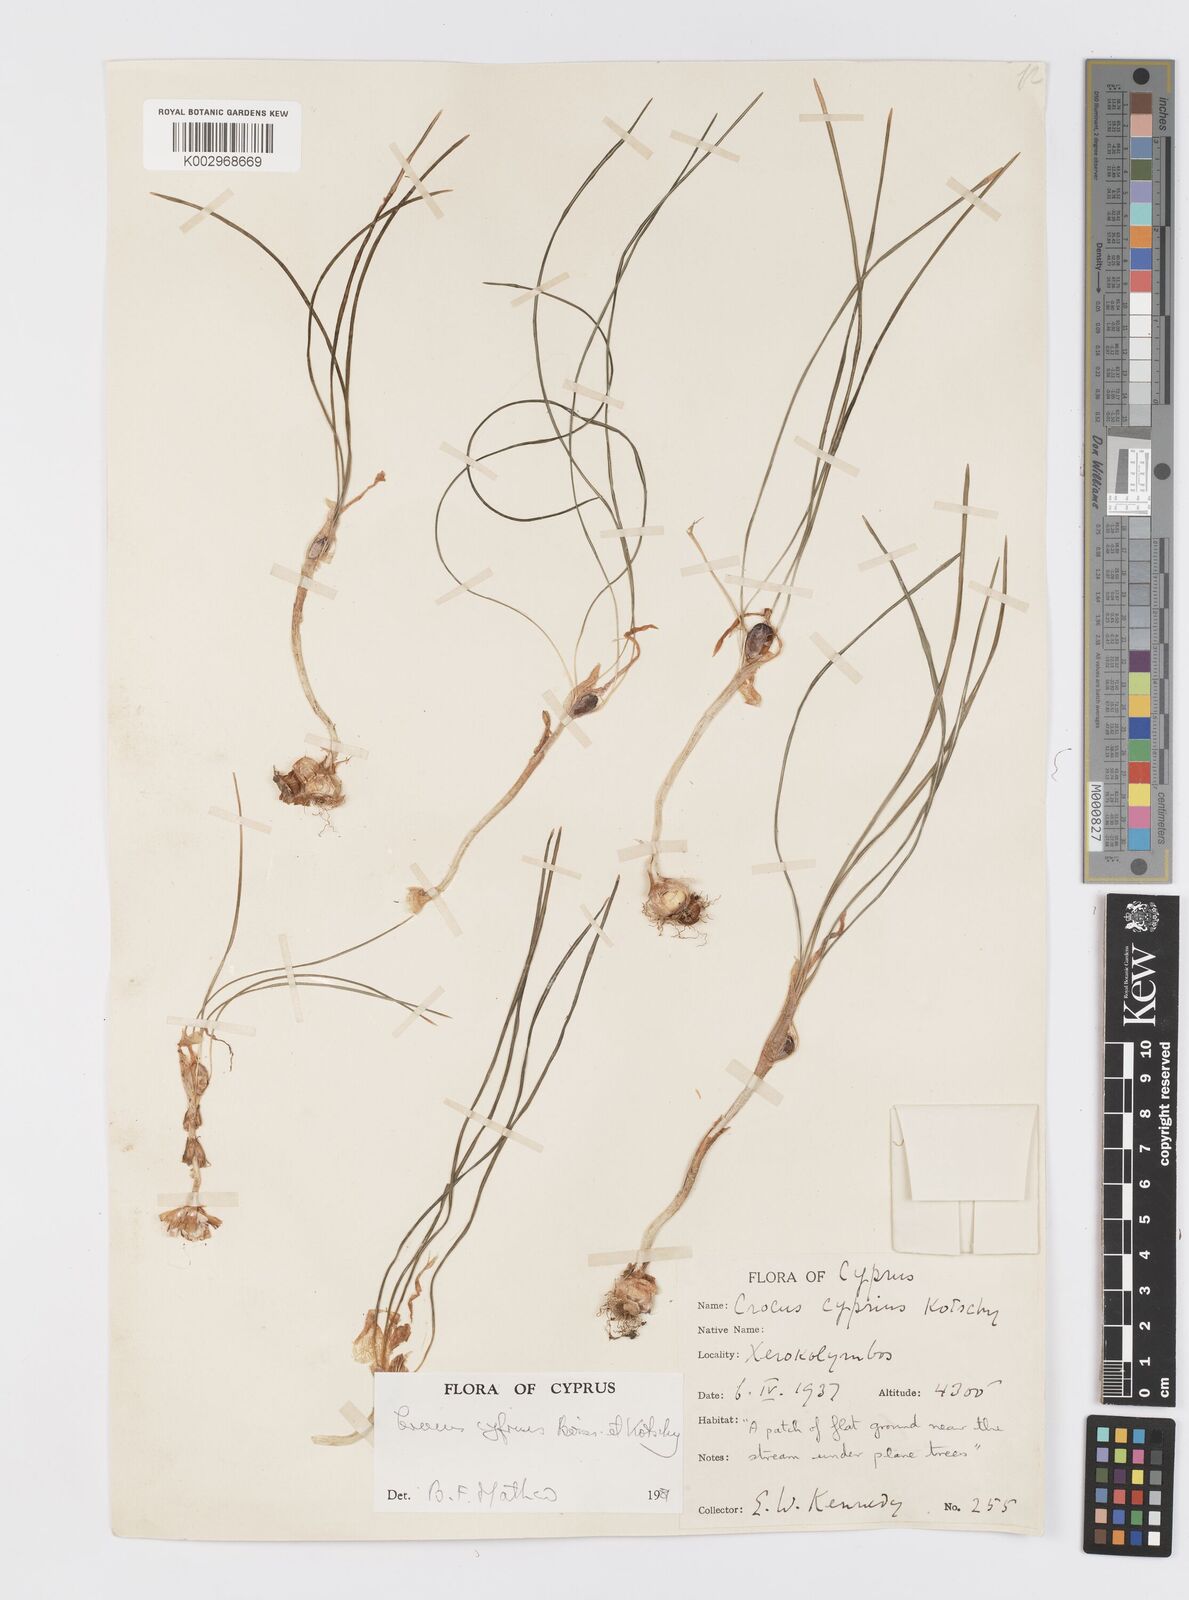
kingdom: Plantae
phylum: Tracheophyta
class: Liliopsida
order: Asparagales
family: Iridaceae
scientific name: Iridaceae
